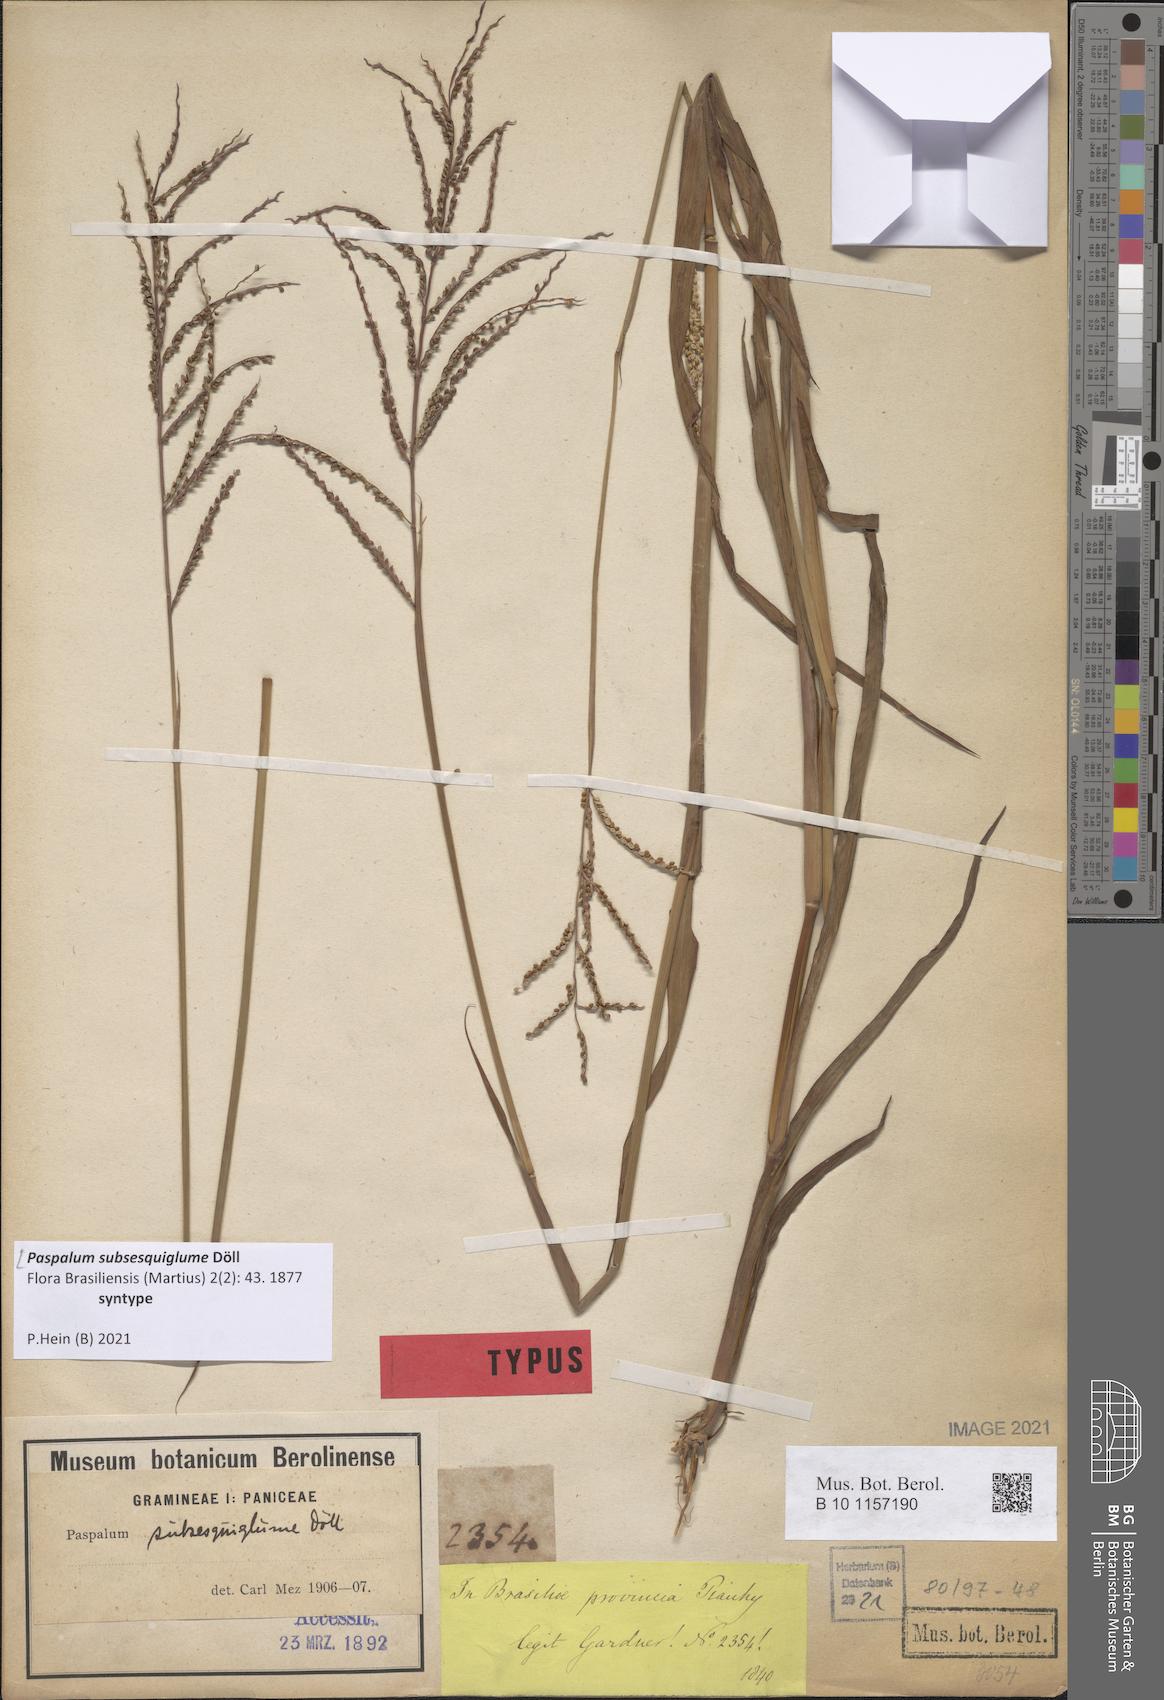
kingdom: Plantae
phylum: Tracheophyta
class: Liliopsida
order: Poales
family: Poaceae
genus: Paspalum
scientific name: Paspalum subsesquiglume
